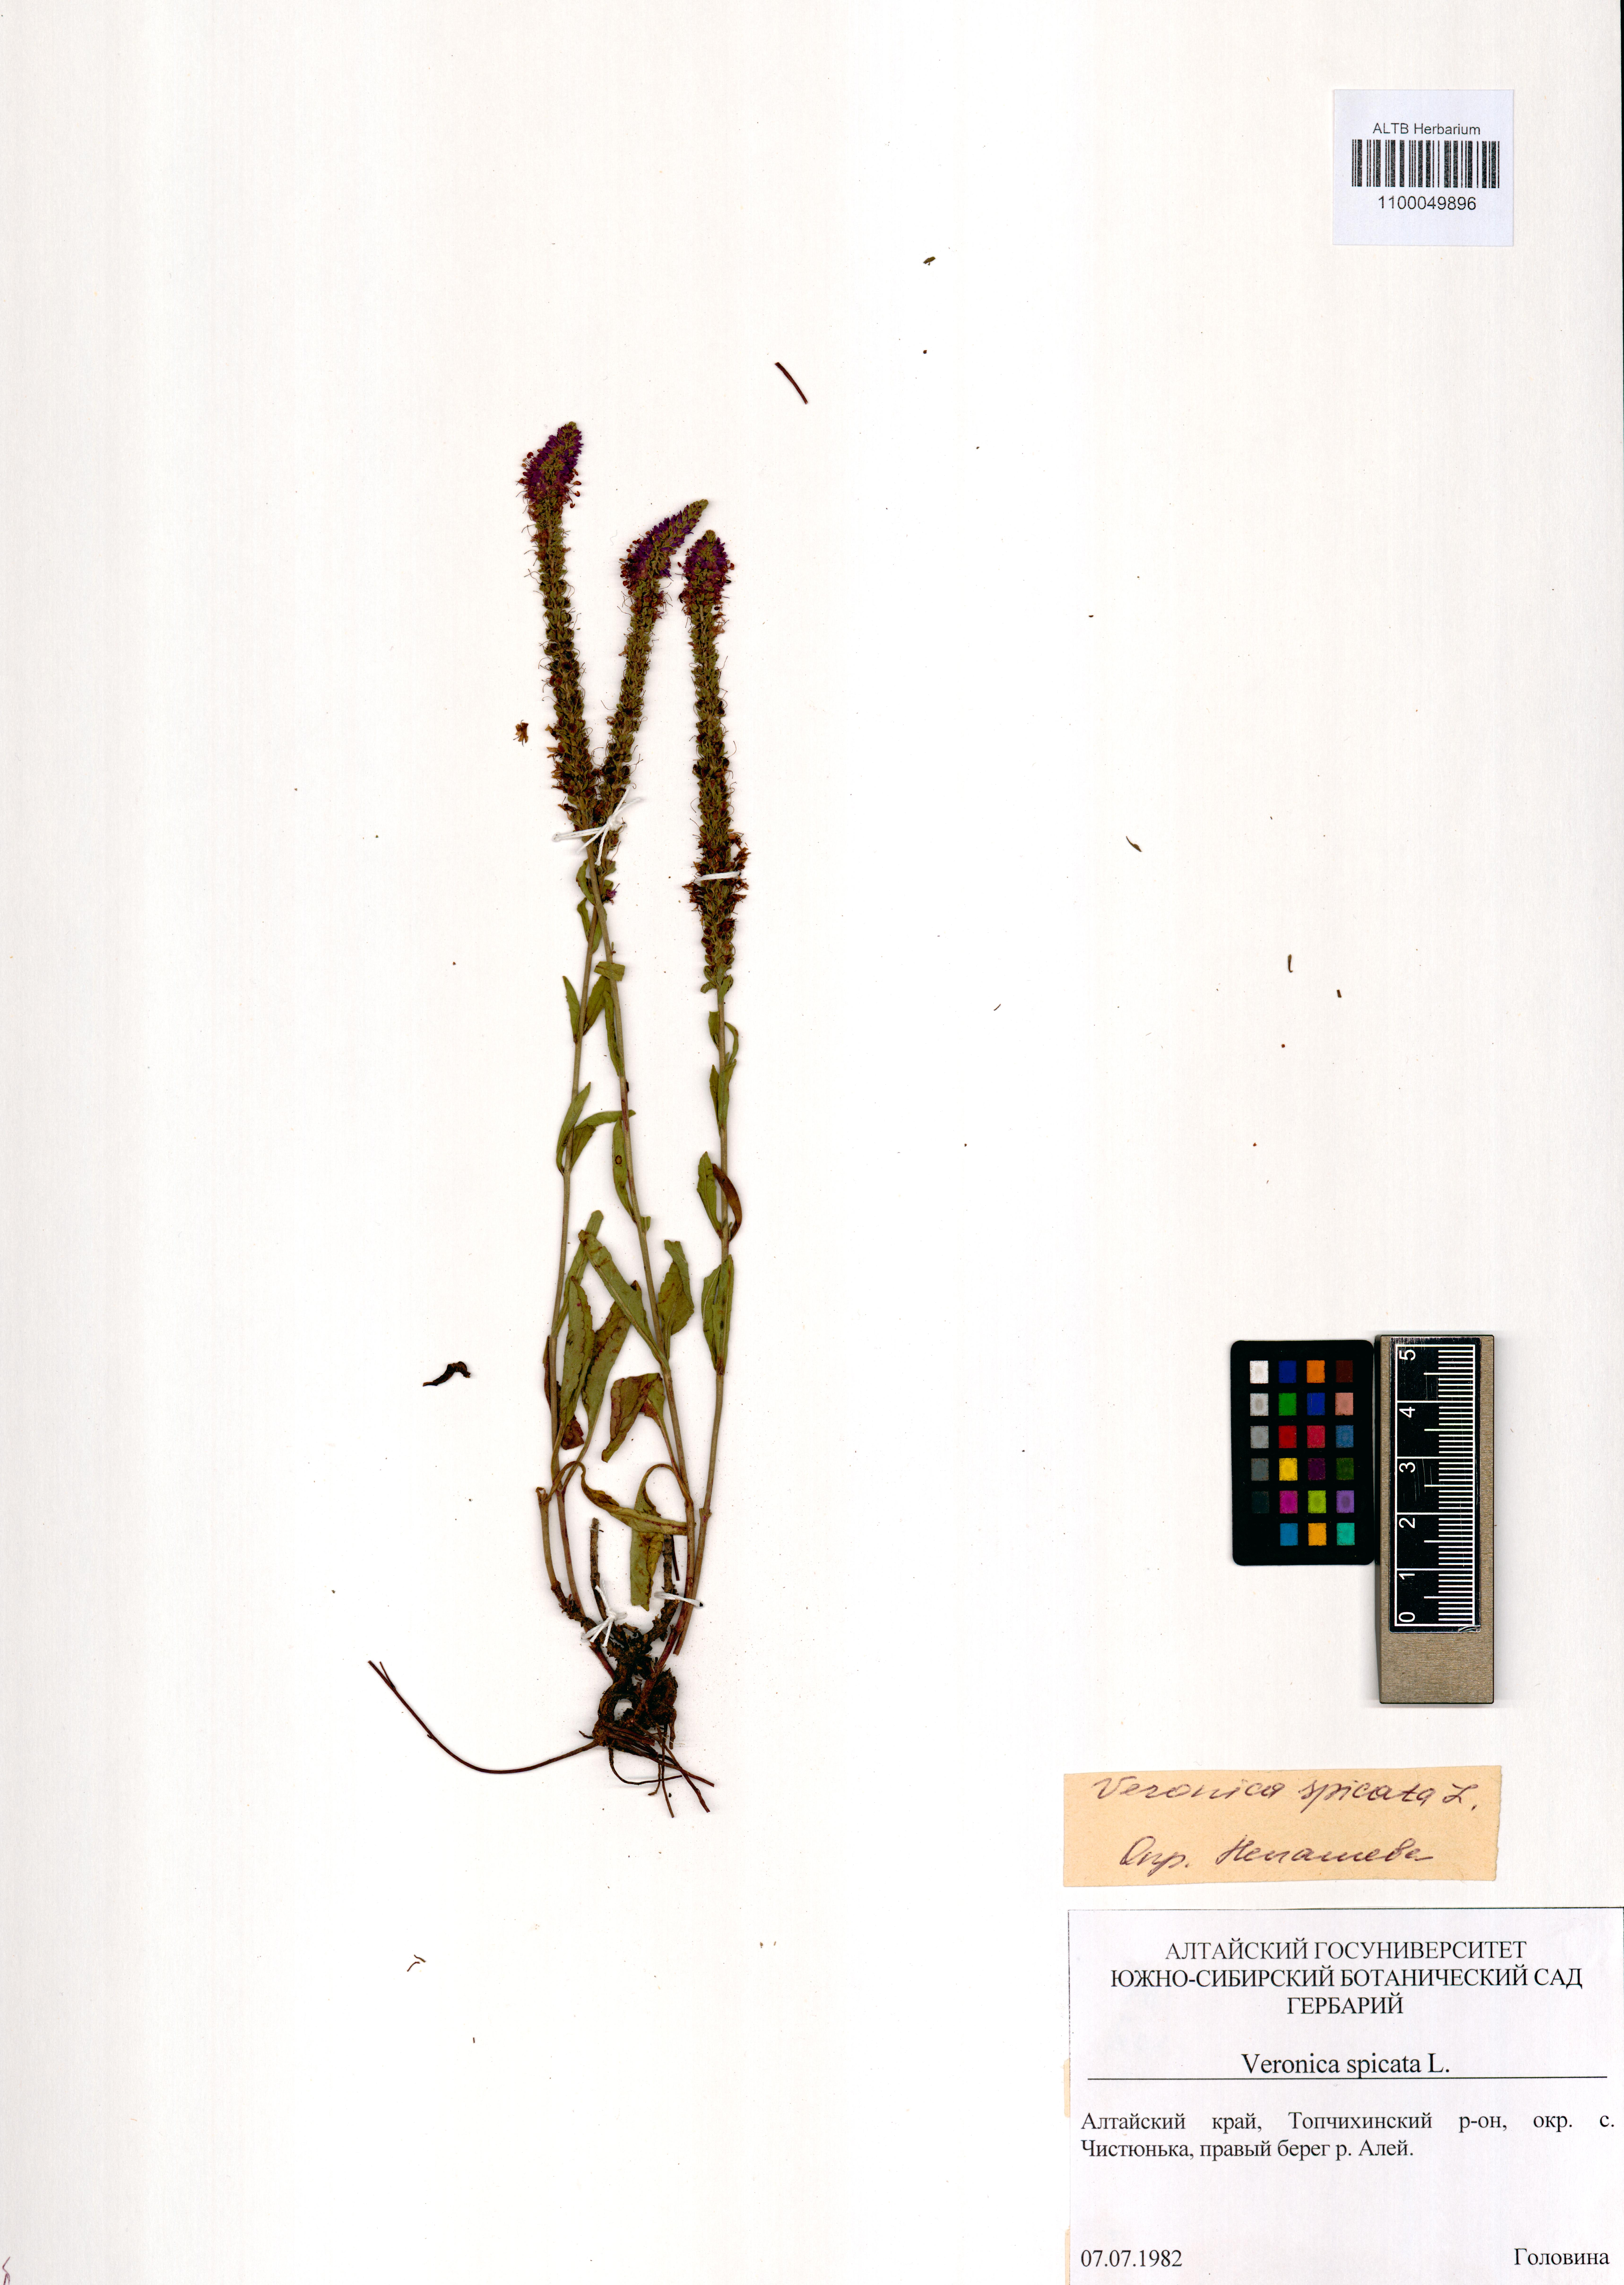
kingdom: Plantae
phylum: Tracheophyta
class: Magnoliopsida
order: Lamiales
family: Plantaginaceae
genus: Veronica
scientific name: Veronica spicata
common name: Spiked speedwell
